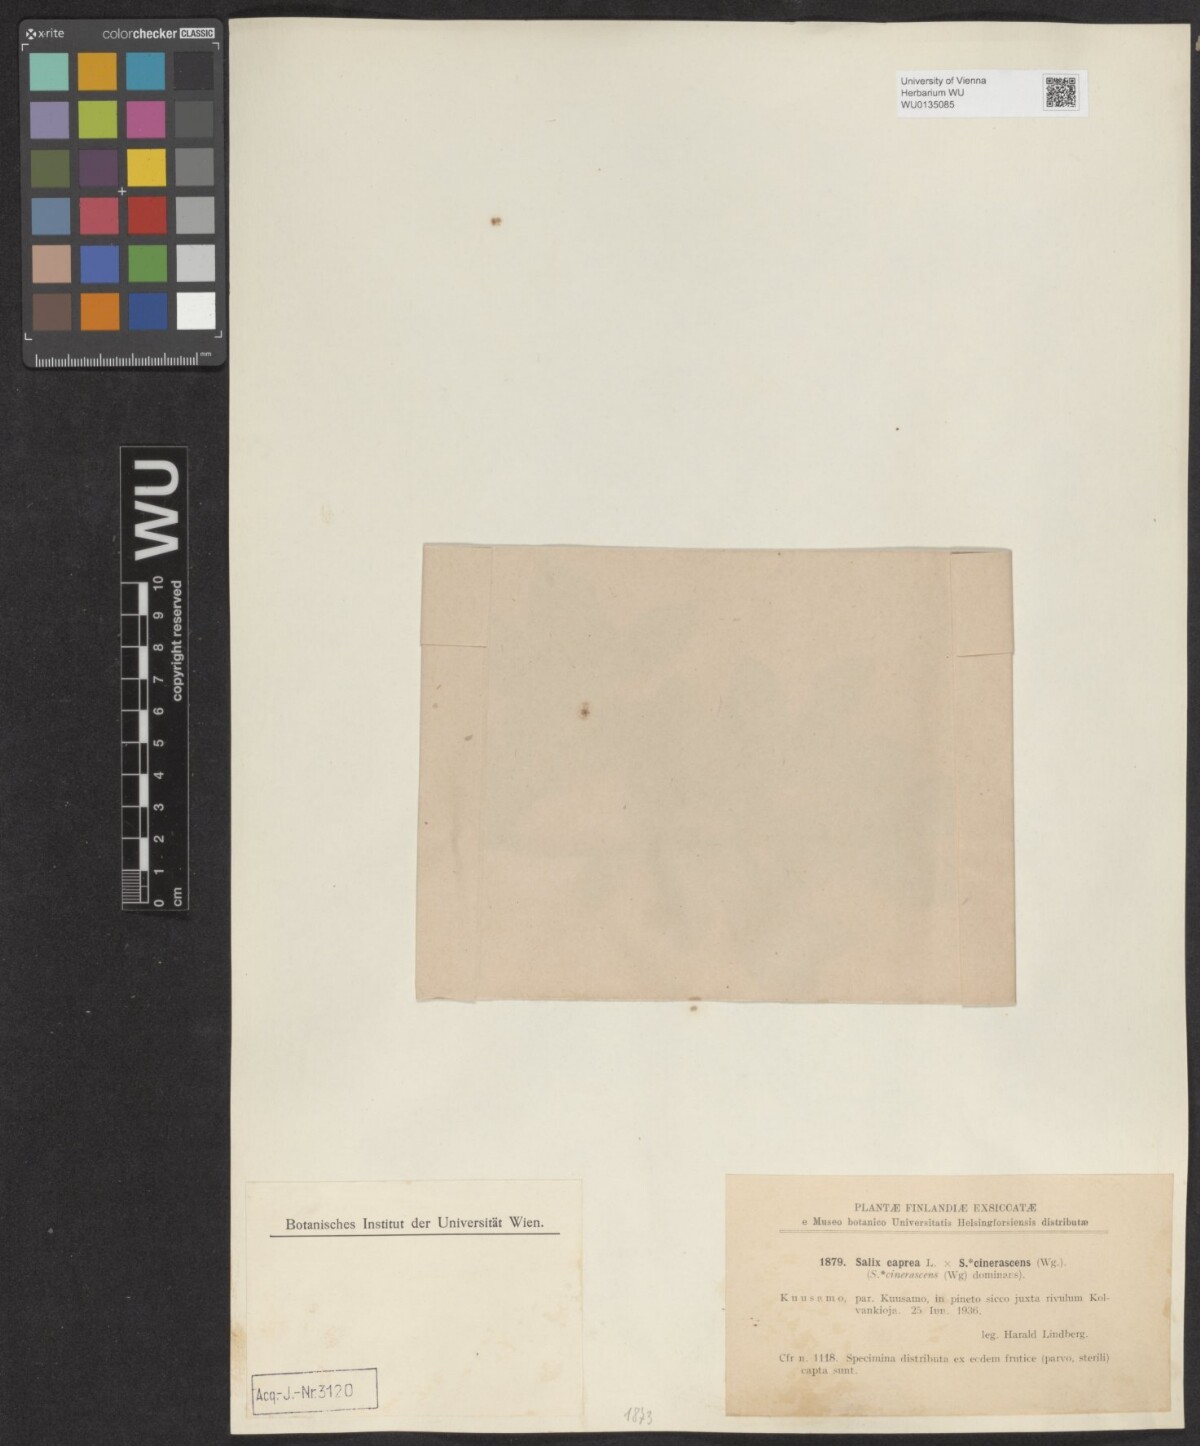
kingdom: Plantae
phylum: Tracheophyta
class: Magnoliopsida
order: Malpighiales
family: Salicaceae
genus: Salix
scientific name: Salix caprea
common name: Goat willow
